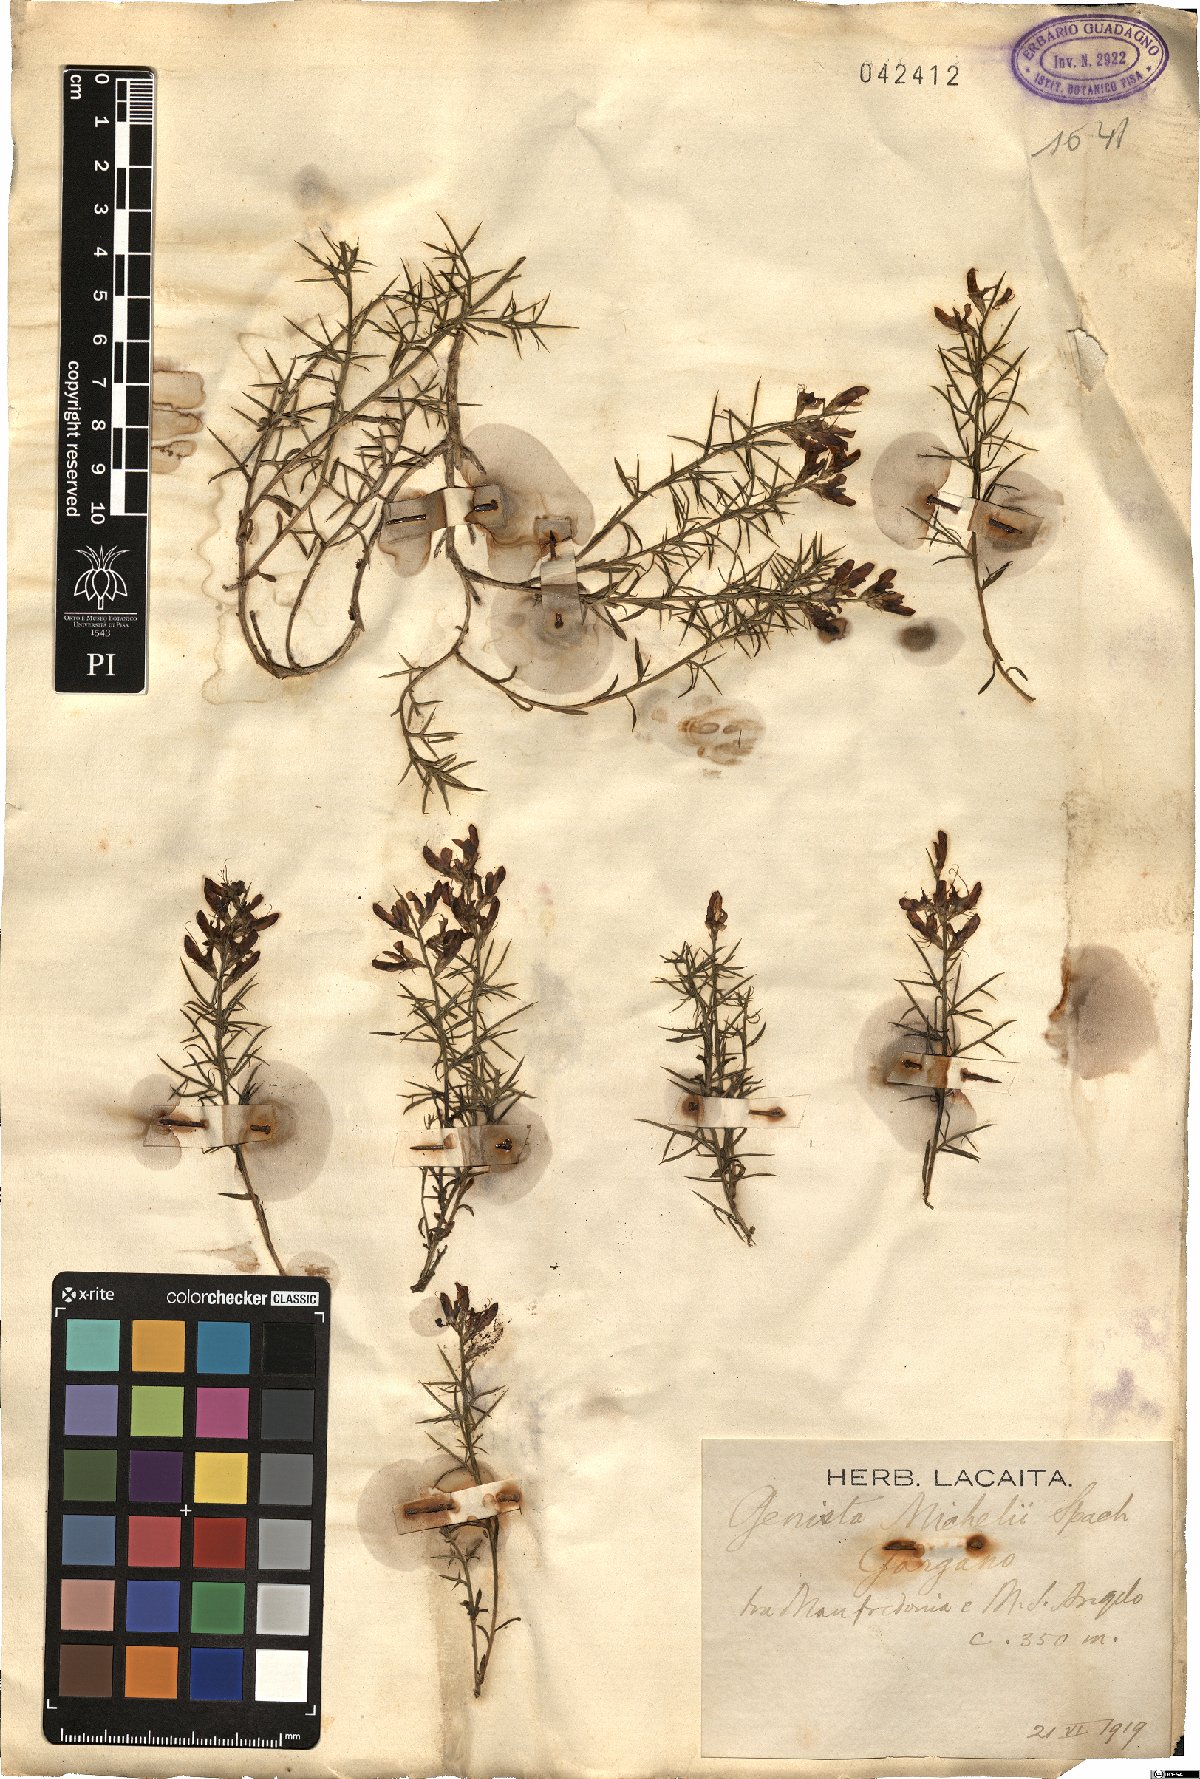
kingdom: Plantae
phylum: Tracheophyta
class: Magnoliopsida
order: Fabales
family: Fabaceae
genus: Genista
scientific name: Genista michelii
